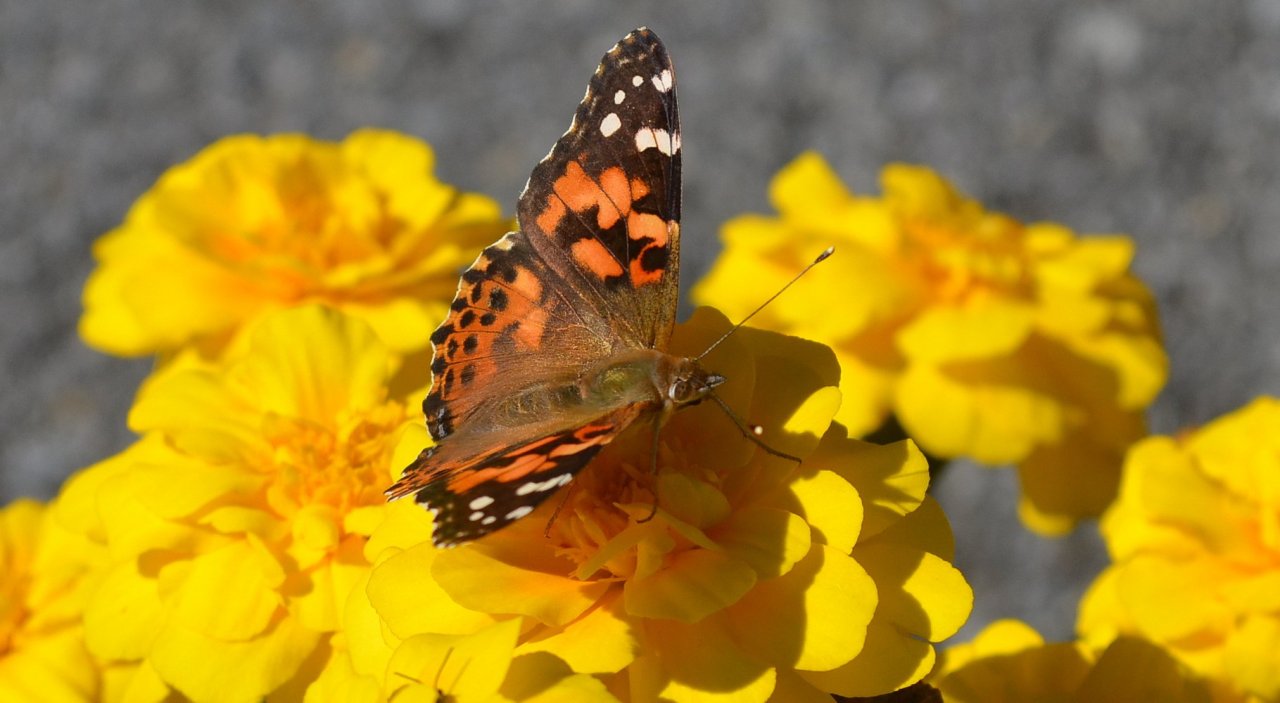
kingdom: Animalia
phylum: Arthropoda
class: Insecta
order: Lepidoptera
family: Nymphalidae
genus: Vanessa
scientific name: Vanessa cardui
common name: Painted Lady
